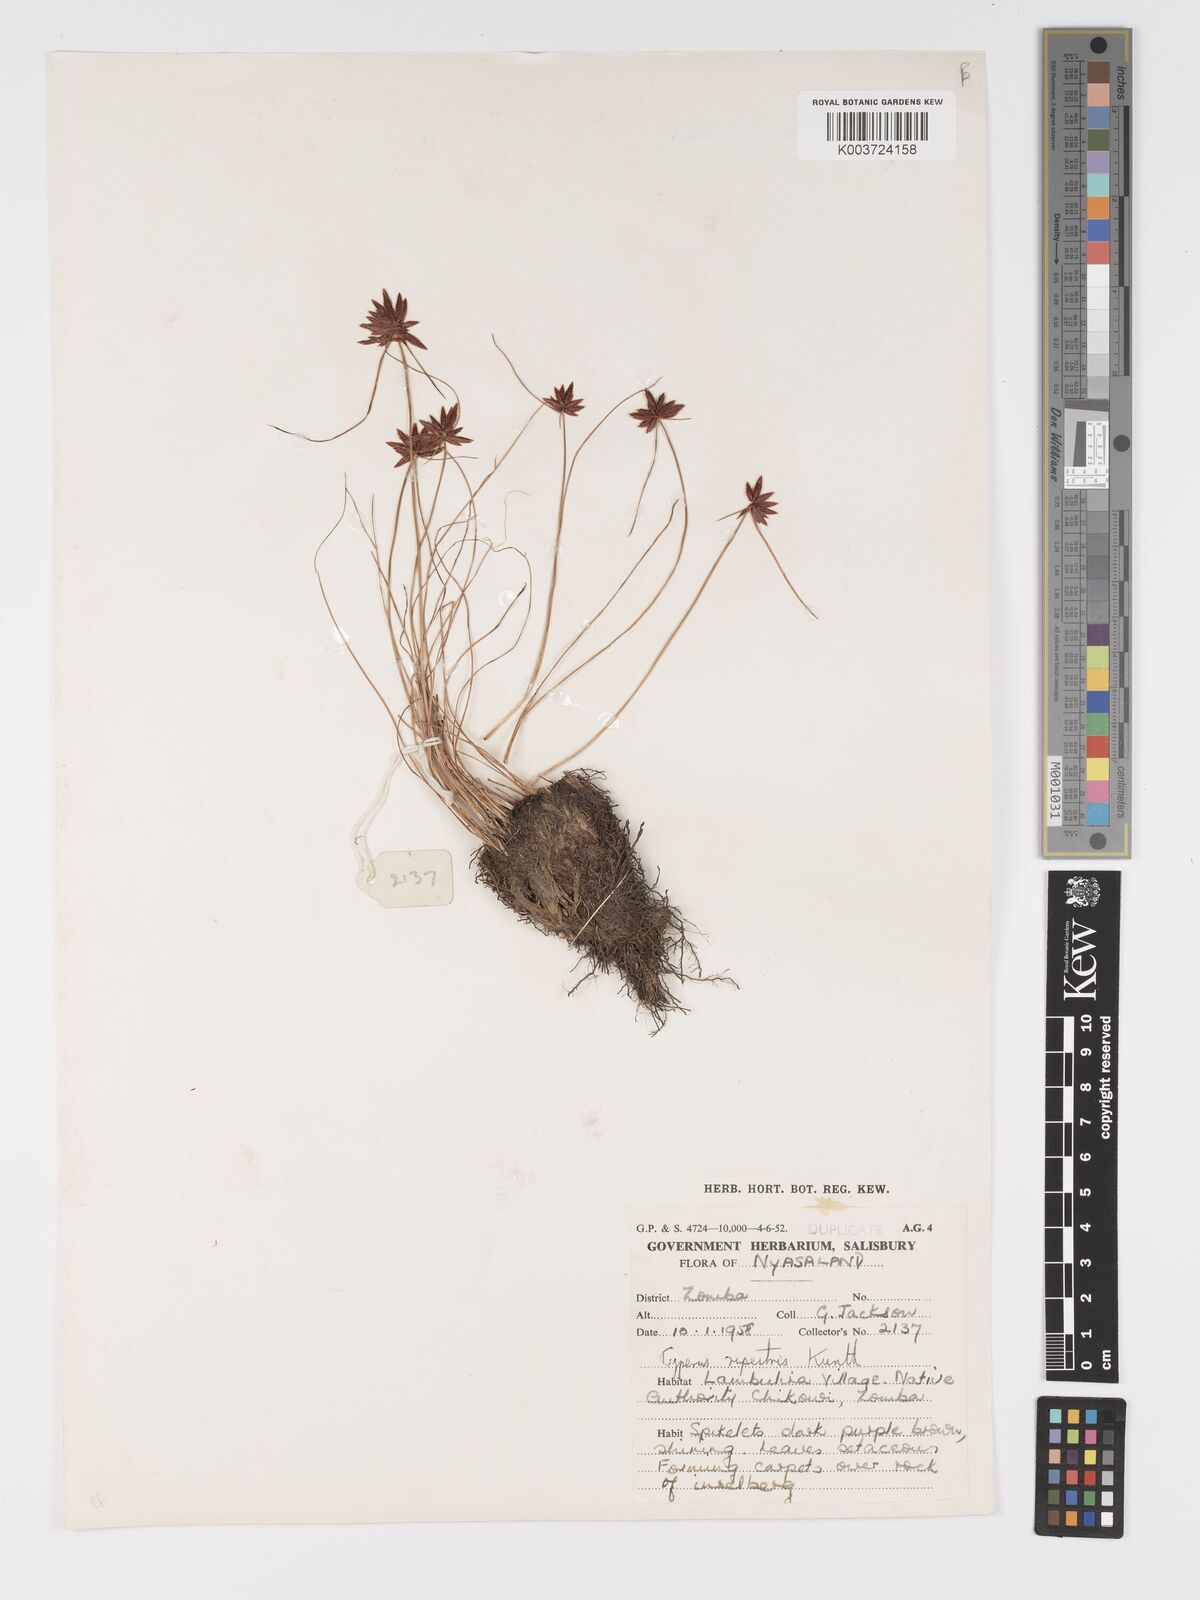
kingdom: Plantae
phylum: Tracheophyta
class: Liliopsida
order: Poales
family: Cyperaceae
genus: Cyperus
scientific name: Cyperus rupestris
